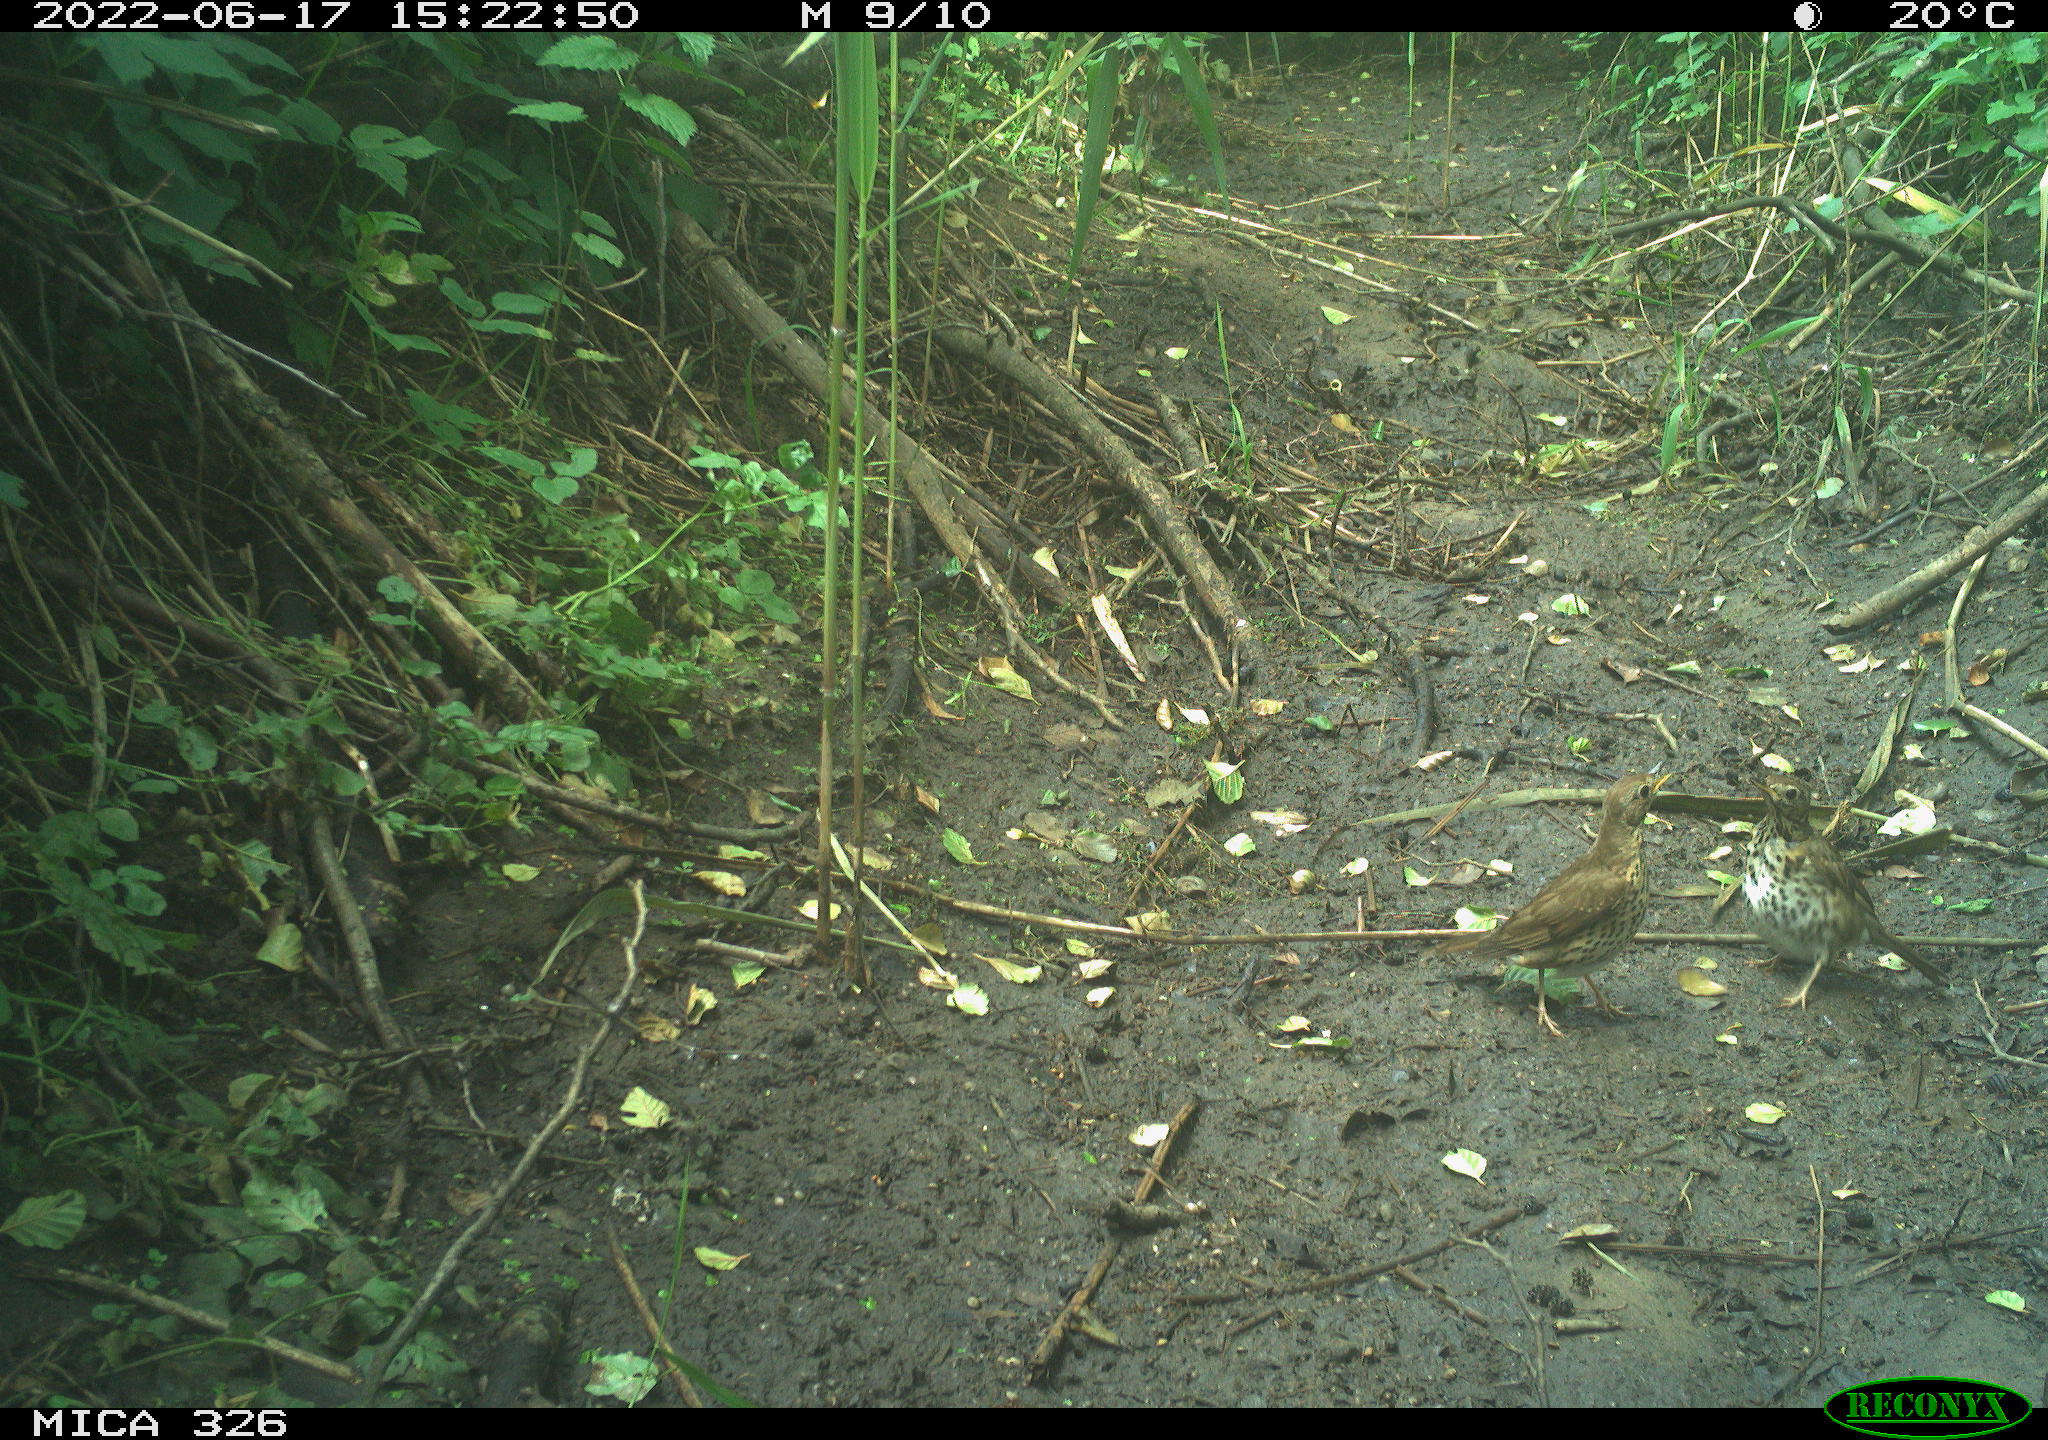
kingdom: Animalia
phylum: Chordata
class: Aves
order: Passeriformes
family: Turdidae
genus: Turdus
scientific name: Turdus
